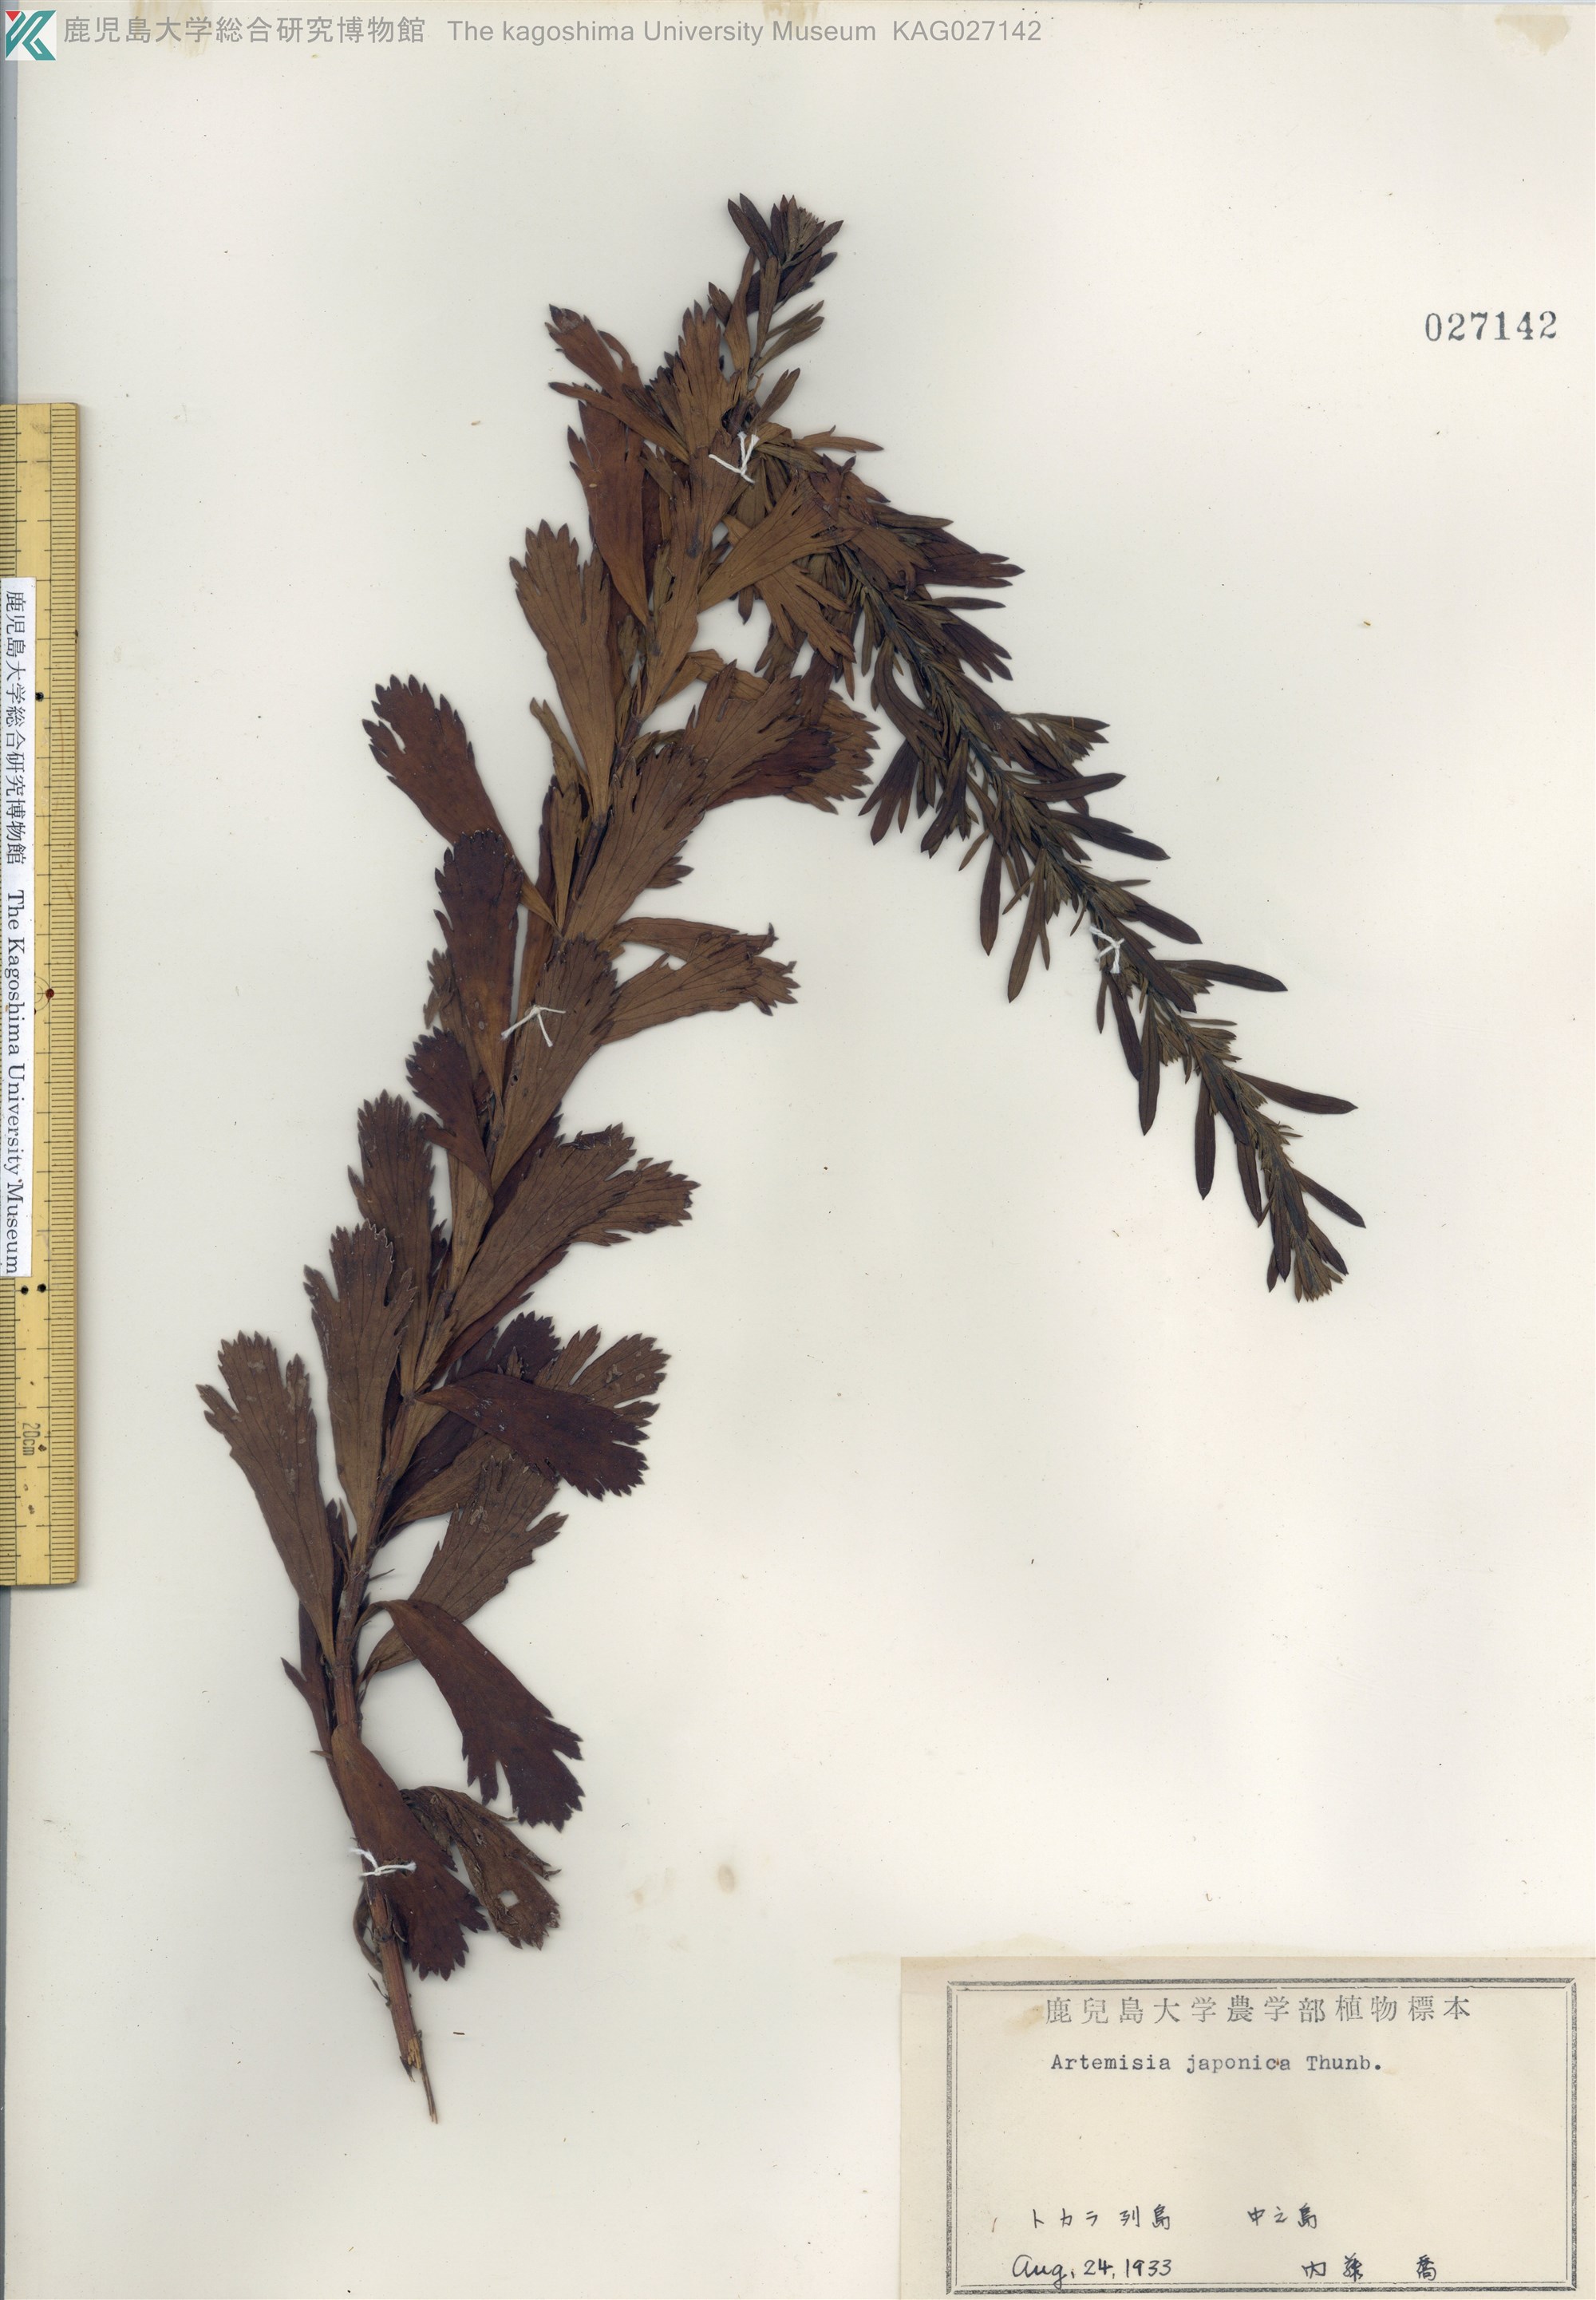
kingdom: Plantae
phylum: Tracheophyta
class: Magnoliopsida
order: Asterales
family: Asteraceae
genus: Artemisia
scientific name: Artemisia japonica
